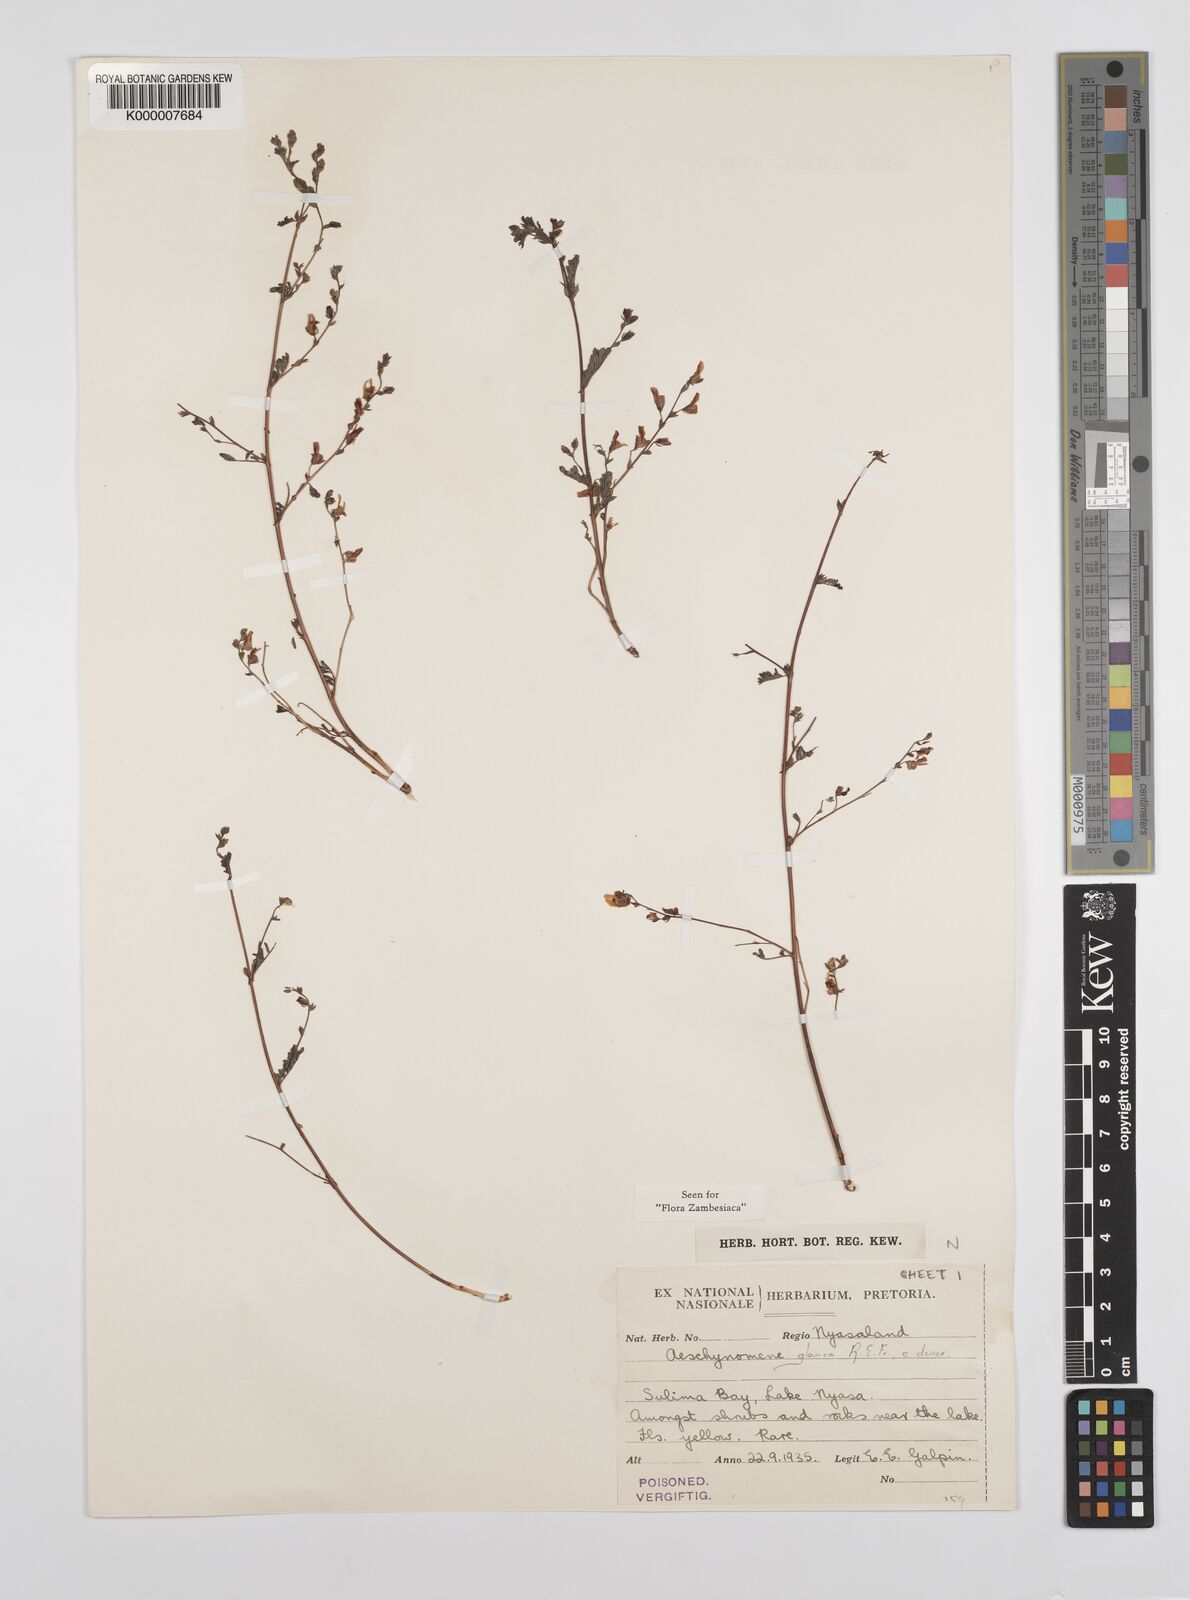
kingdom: Plantae
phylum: Tracheophyta
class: Magnoliopsida
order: Fabales
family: Fabaceae
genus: Aeschynomene
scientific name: Aeschynomene glauca
